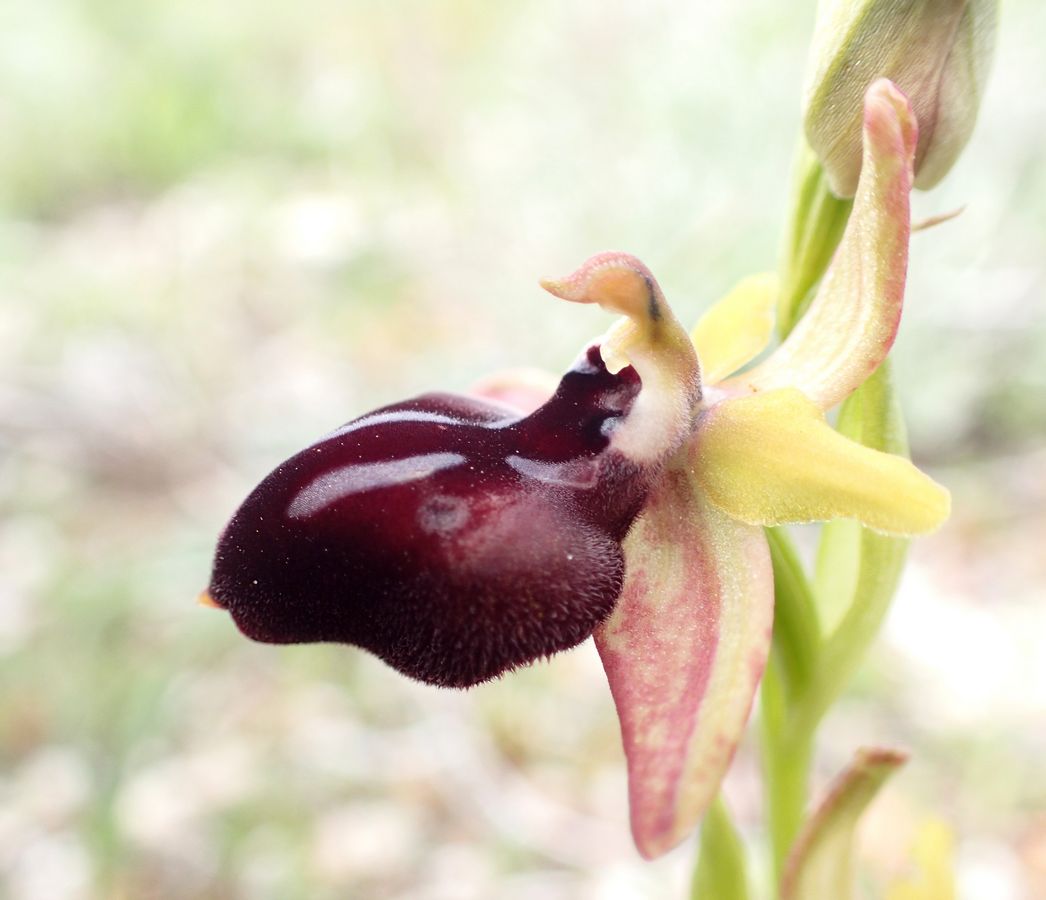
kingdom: Plantae
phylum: Tracheophyta
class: Liliopsida
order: Asparagales
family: Orchidaceae
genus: Ophrys
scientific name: Ophrys sphegodes
